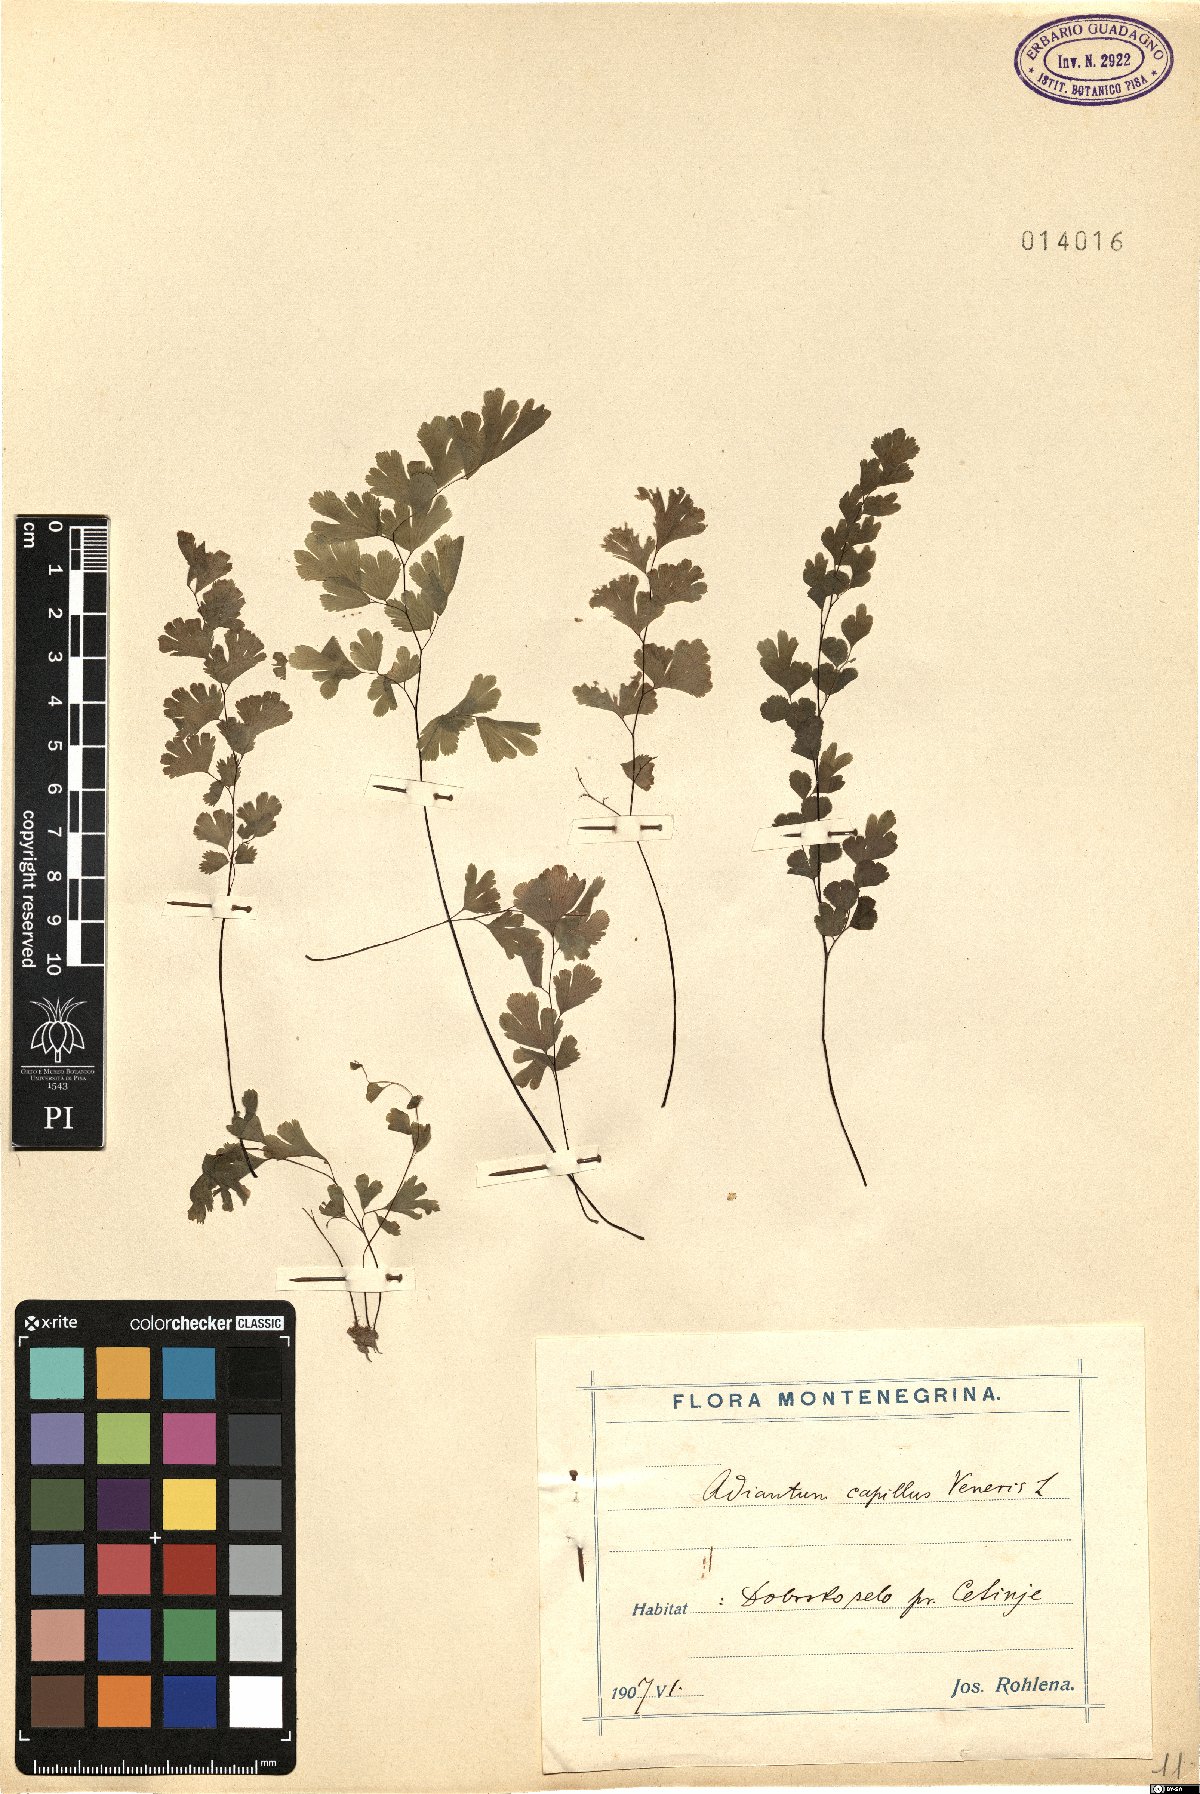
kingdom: Plantae
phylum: Tracheophyta
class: Polypodiopsida
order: Polypodiales
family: Pteridaceae
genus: Adiantum
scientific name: Adiantum capillus-veneris
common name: Maidenhair fern
